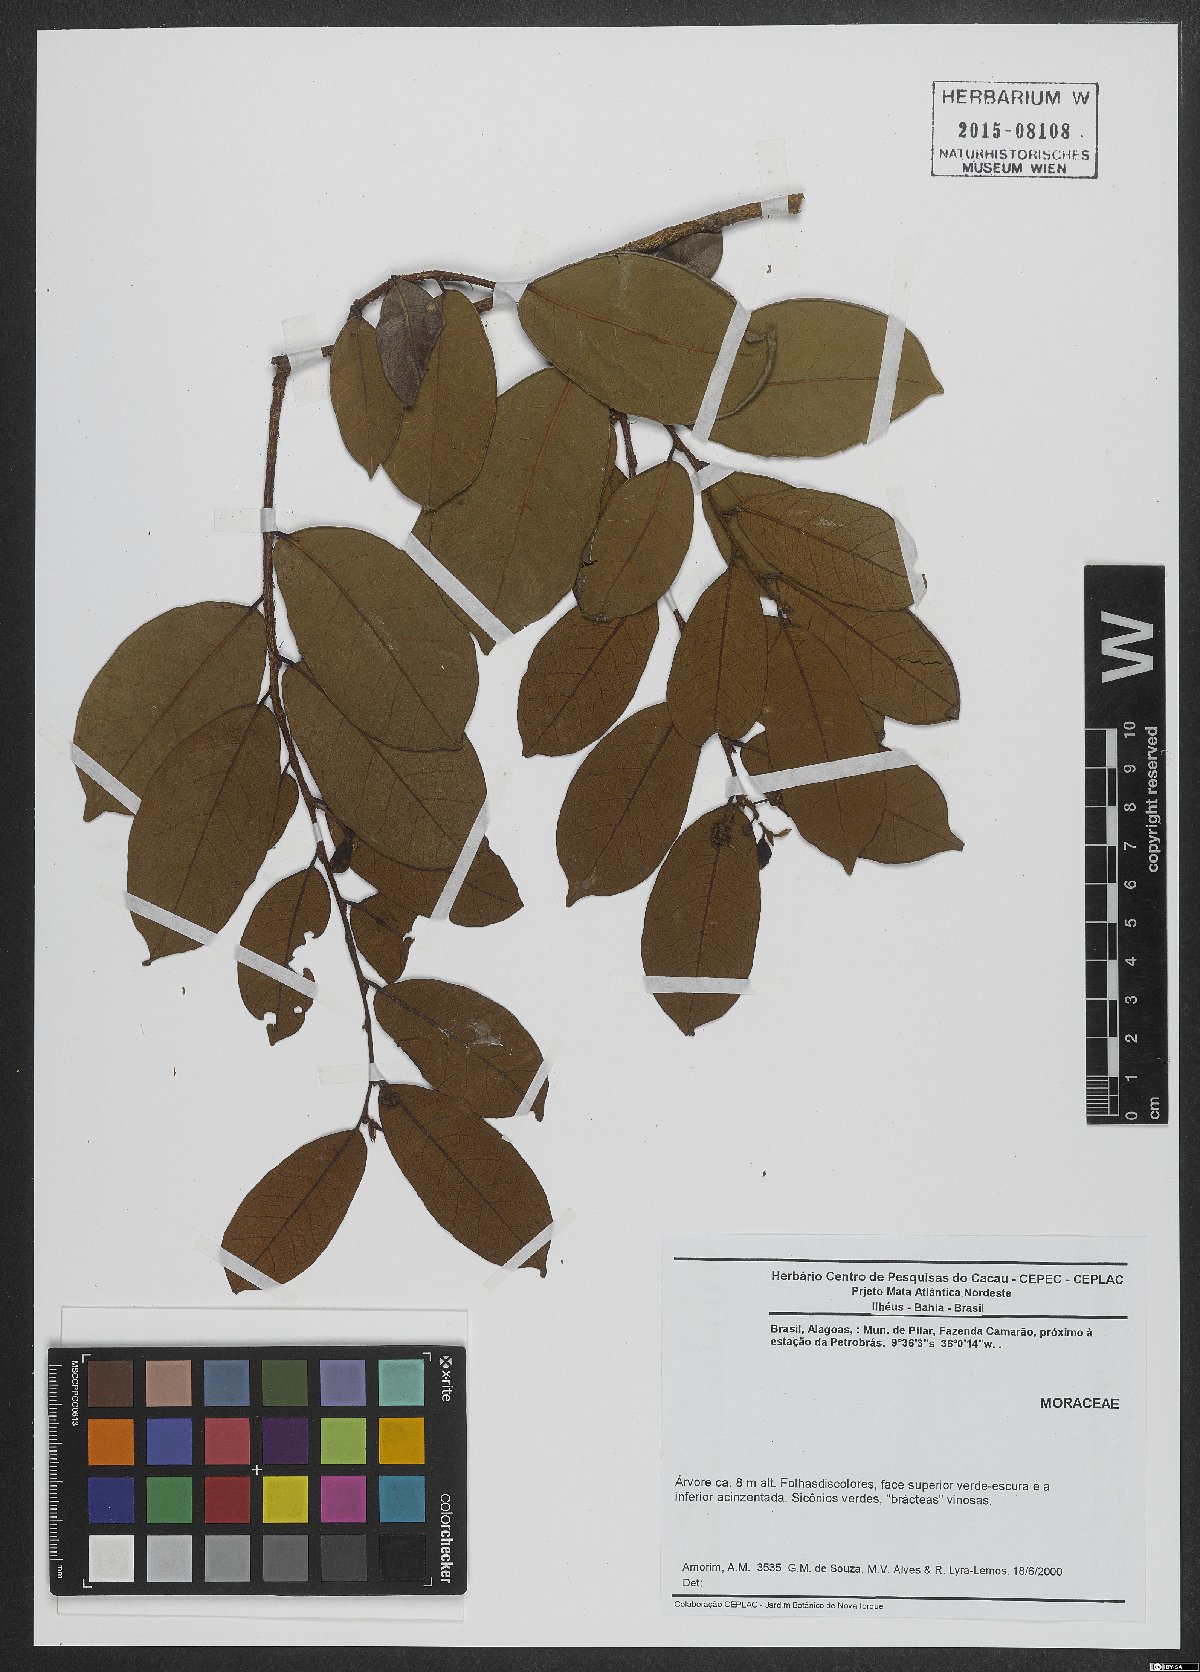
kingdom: Plantae
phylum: Tracheophyta
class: Magnoliopsida
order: Rosales
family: Moraceae
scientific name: Moraceae
